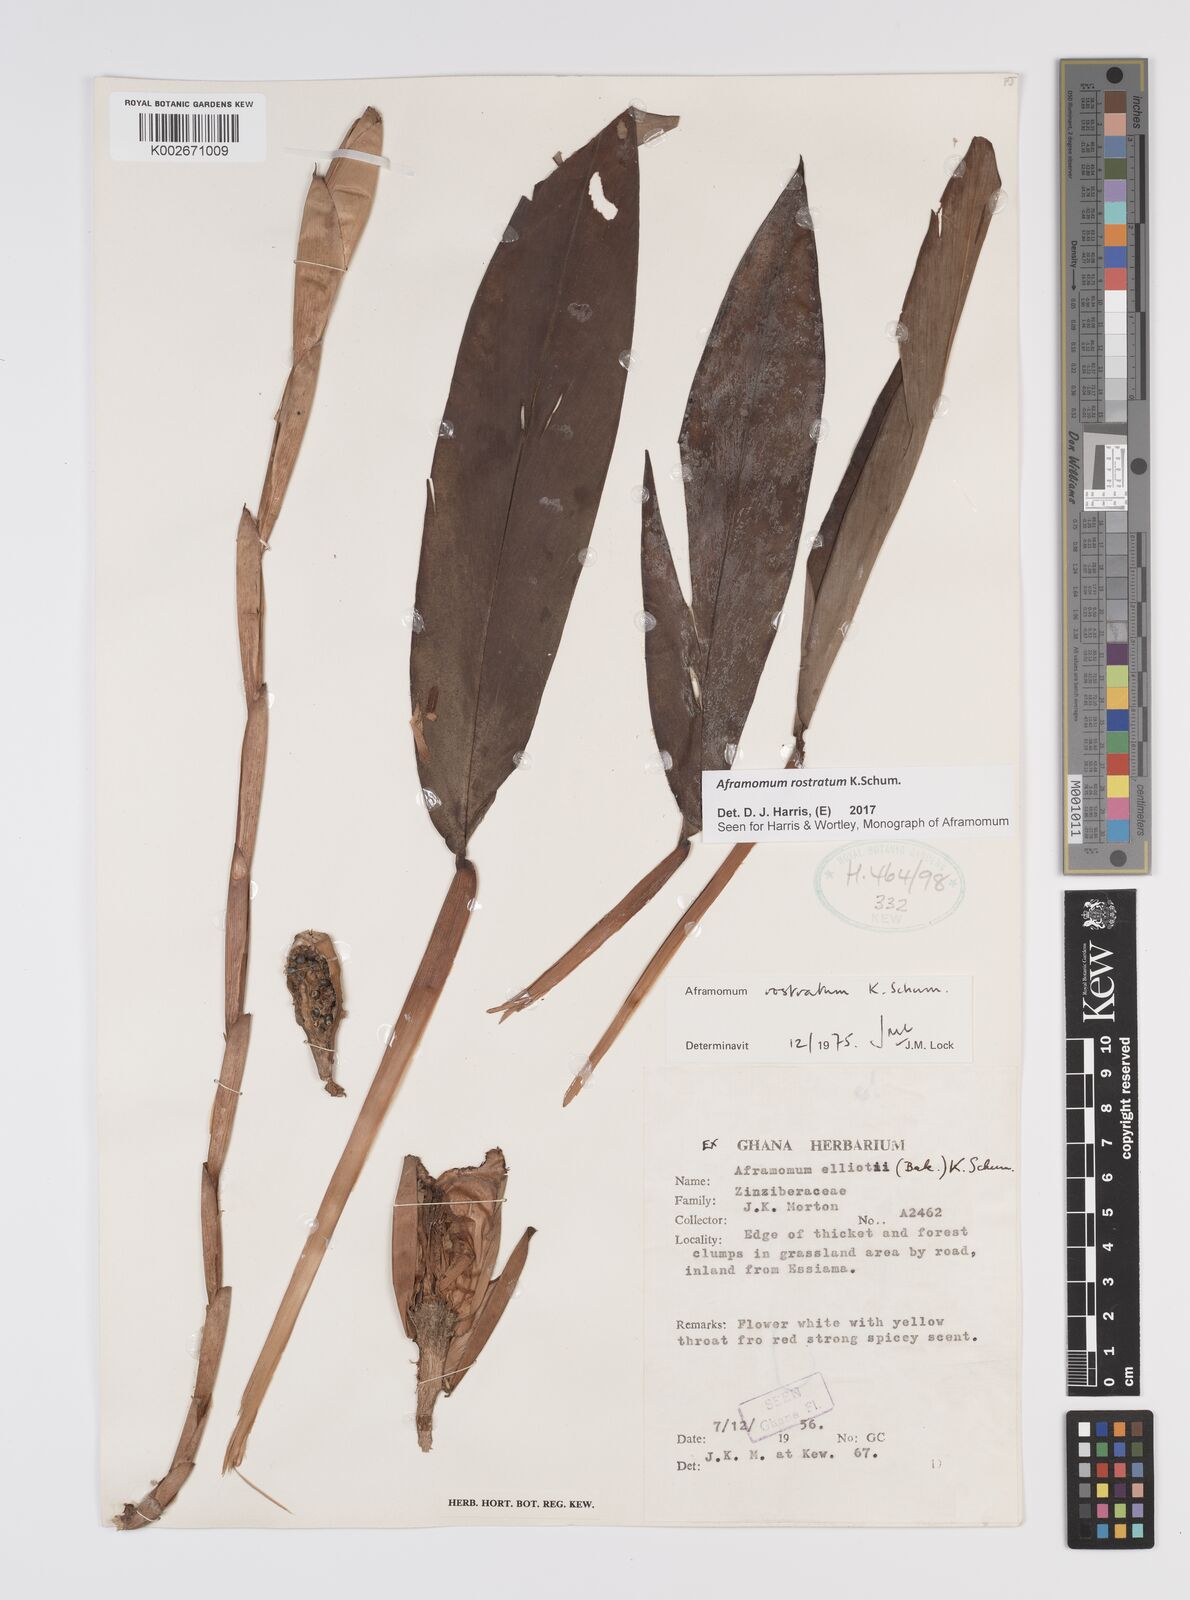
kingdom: Plantae
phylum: Tracheophyta
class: Liliopsida
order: Zingiberales
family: Zingiberaceae
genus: Aframomum
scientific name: Aframomum rostratum
